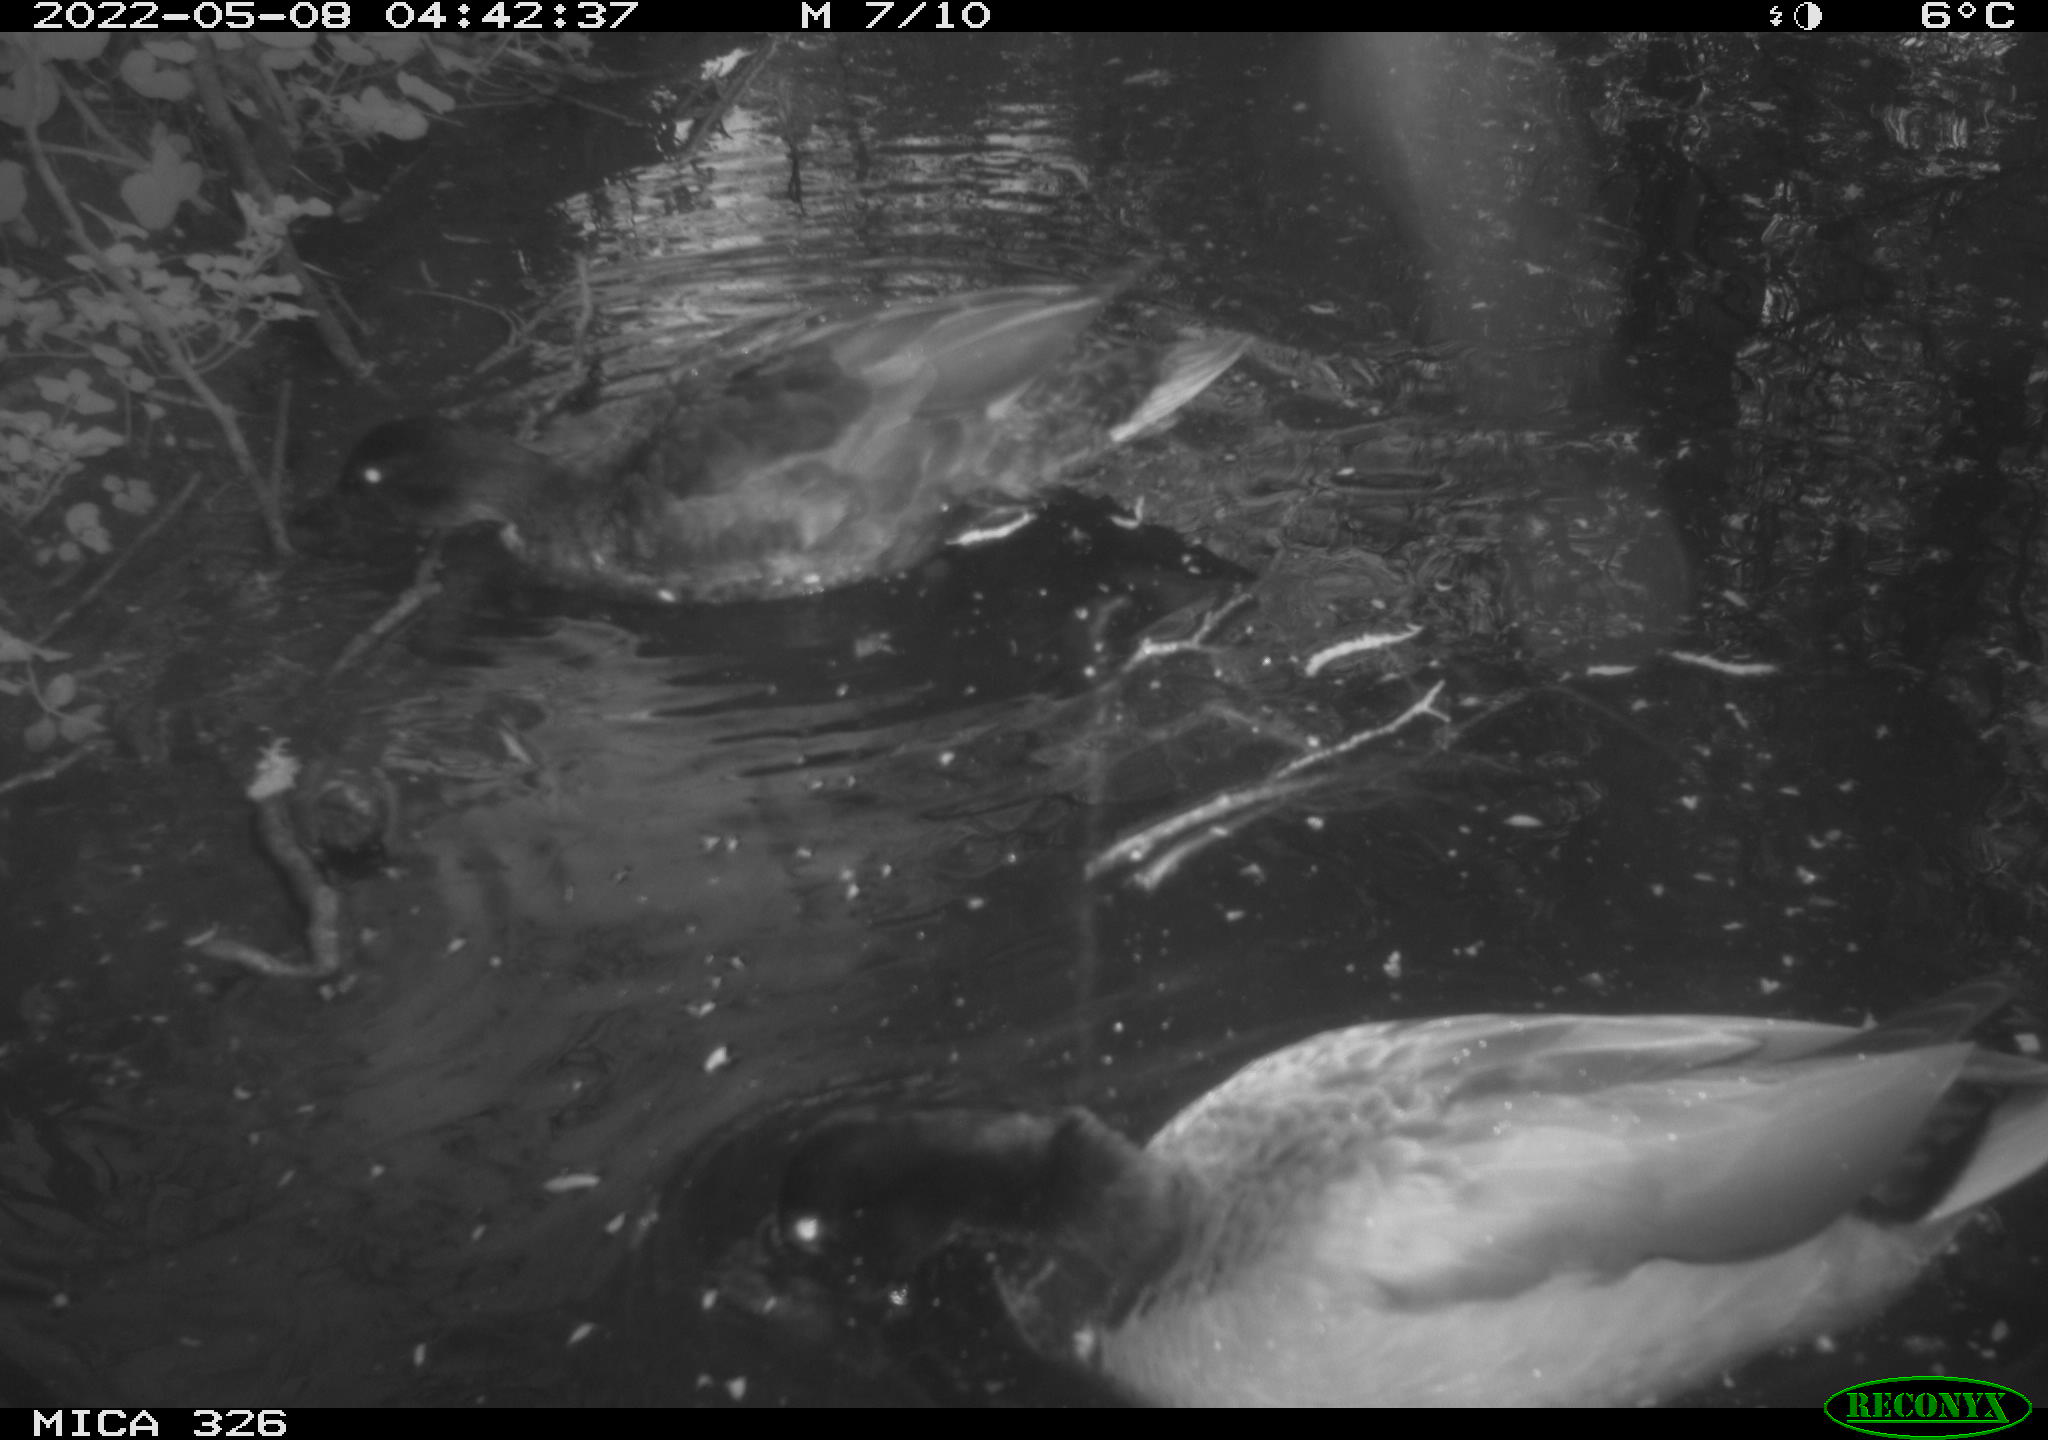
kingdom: Animalia
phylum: Chordata
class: Aves
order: Anseriformes
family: Anatidae
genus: Anas
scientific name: Anas
